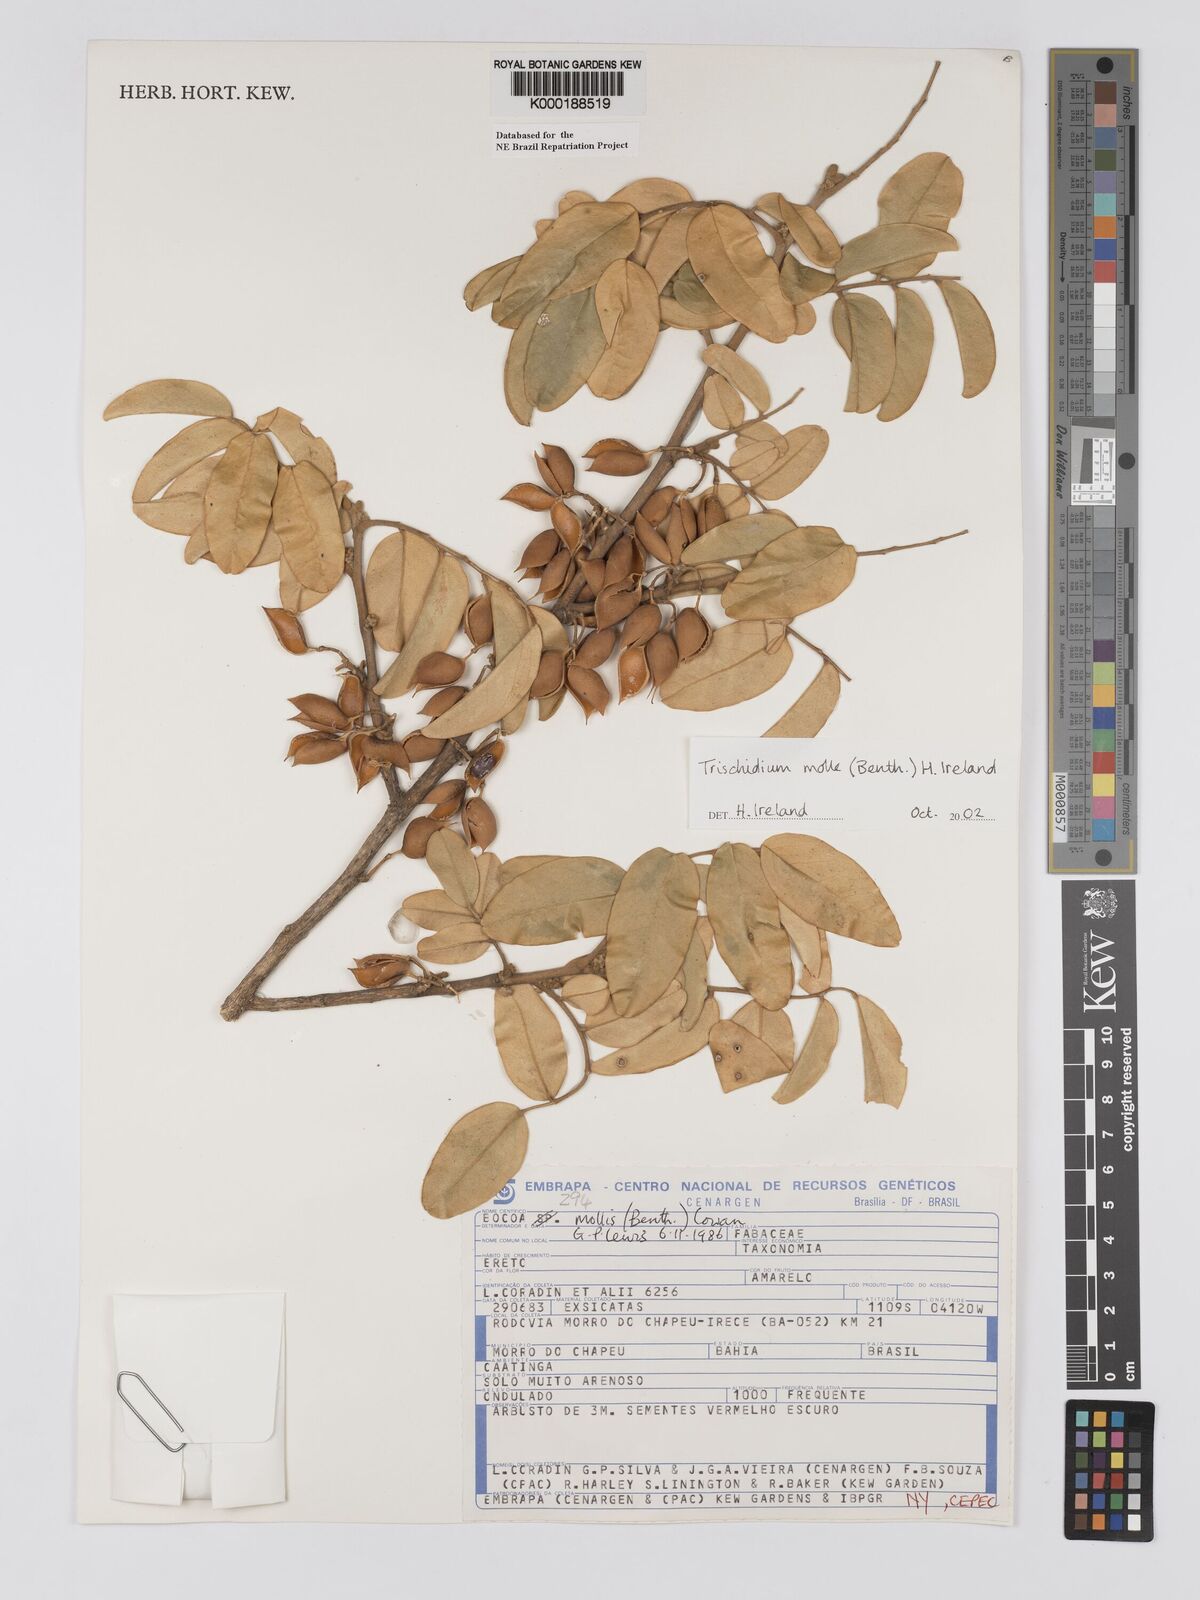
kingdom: Plantae
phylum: Tracheophyta
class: Magnoliopsida
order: Fabales
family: Fabaceae
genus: Trischidium
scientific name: Trischidium
